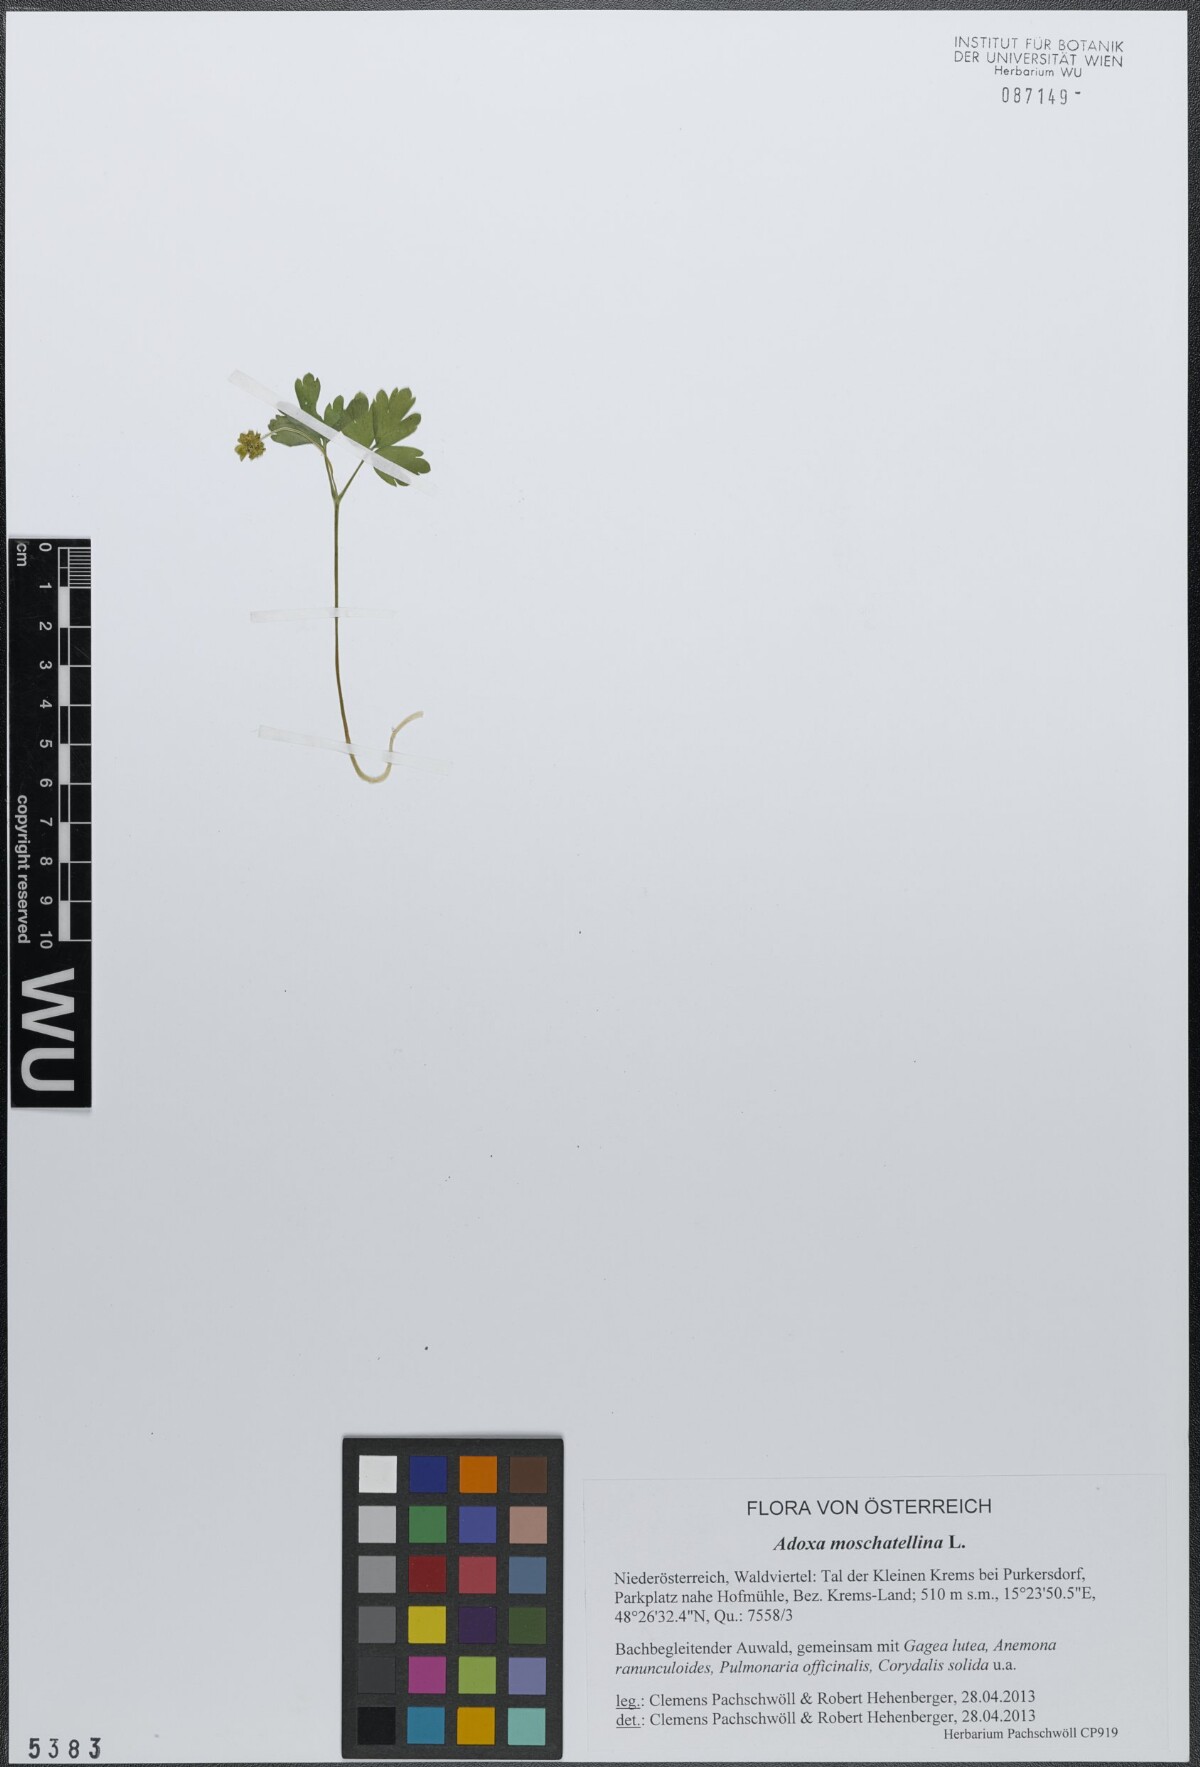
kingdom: Plantae
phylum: Tracheophyta
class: Magnoliopsida
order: Dipsacales
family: Viburnaceae
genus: Adoxa
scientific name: Adoxa moschatellina
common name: Moschatel
